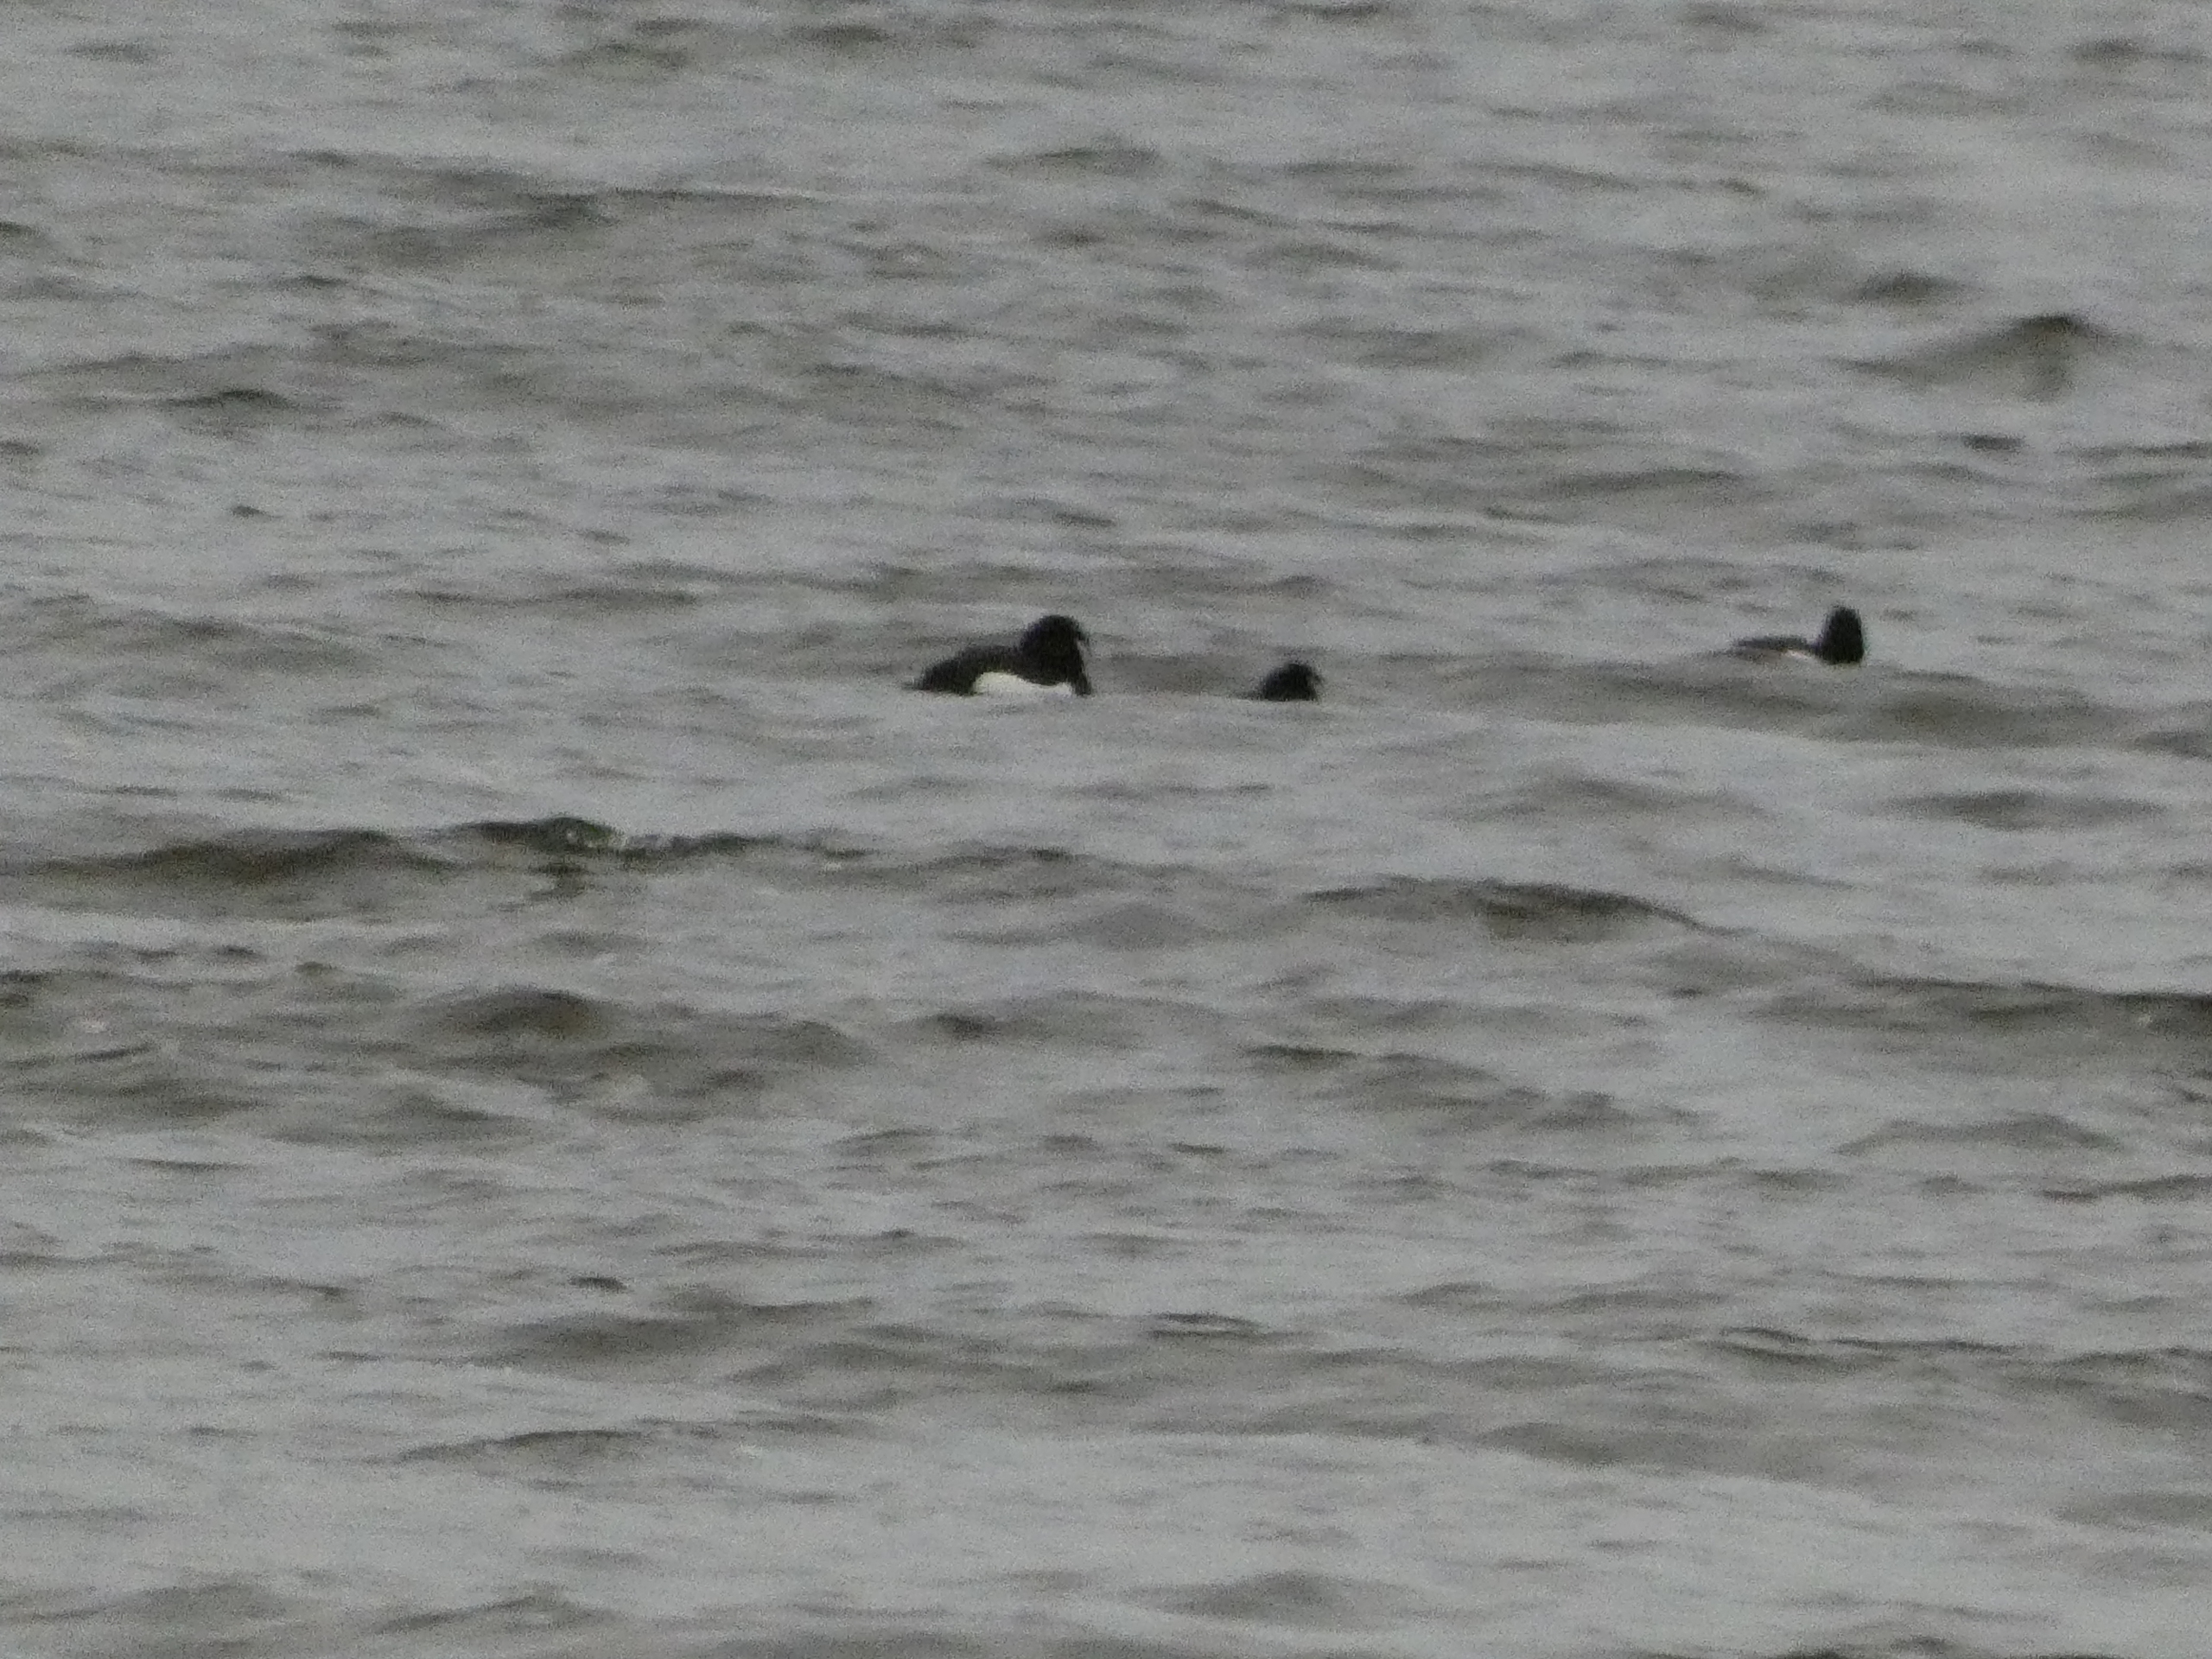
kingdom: Animalia
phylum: Chordata
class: Aves
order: Anseriformes
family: Anatidae
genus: Aythya
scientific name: Aythya fuligula
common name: Troldand
